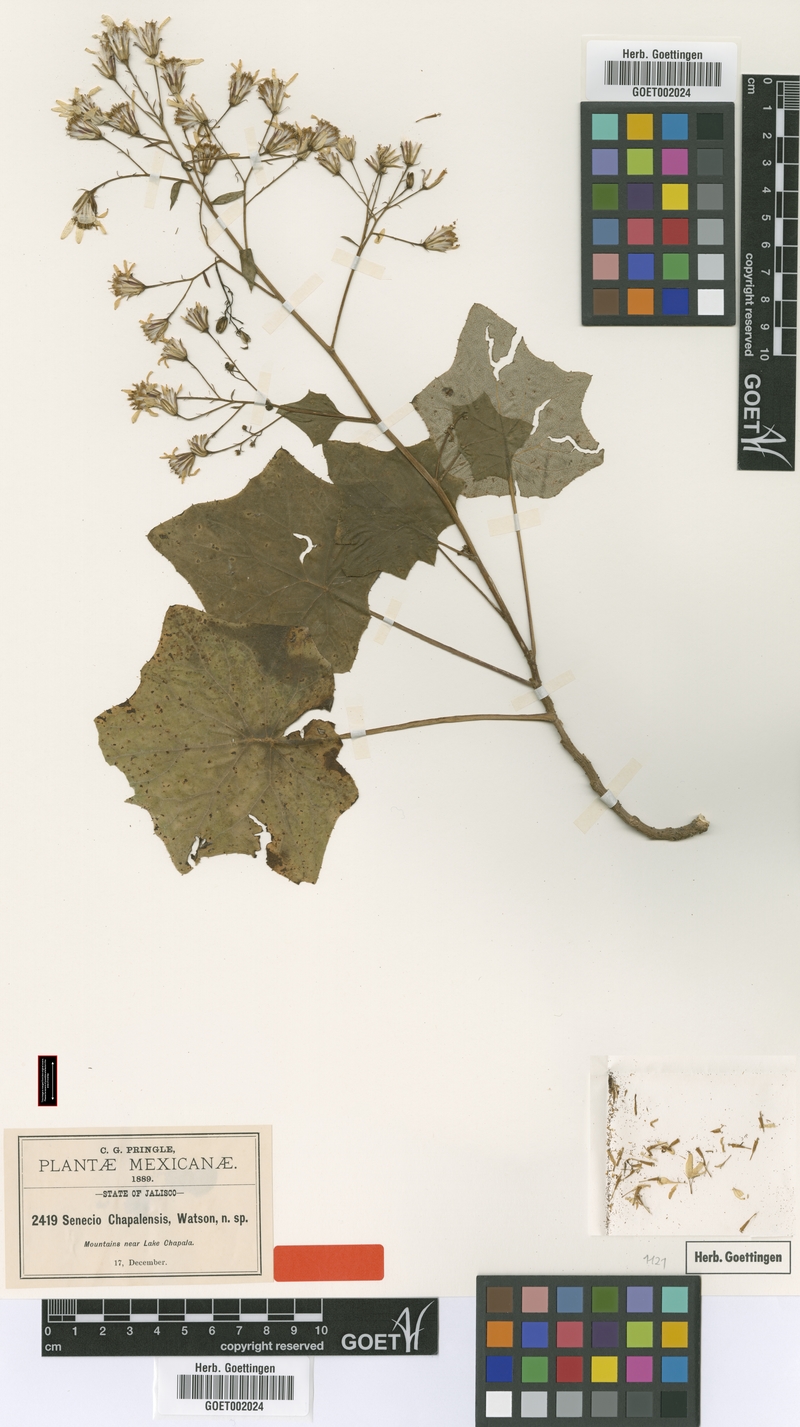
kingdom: Plantae
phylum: Tracheophyta
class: Magnoliopsida
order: Asterales
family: Asteraceae
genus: Roldana
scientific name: Roldana chapalensis
